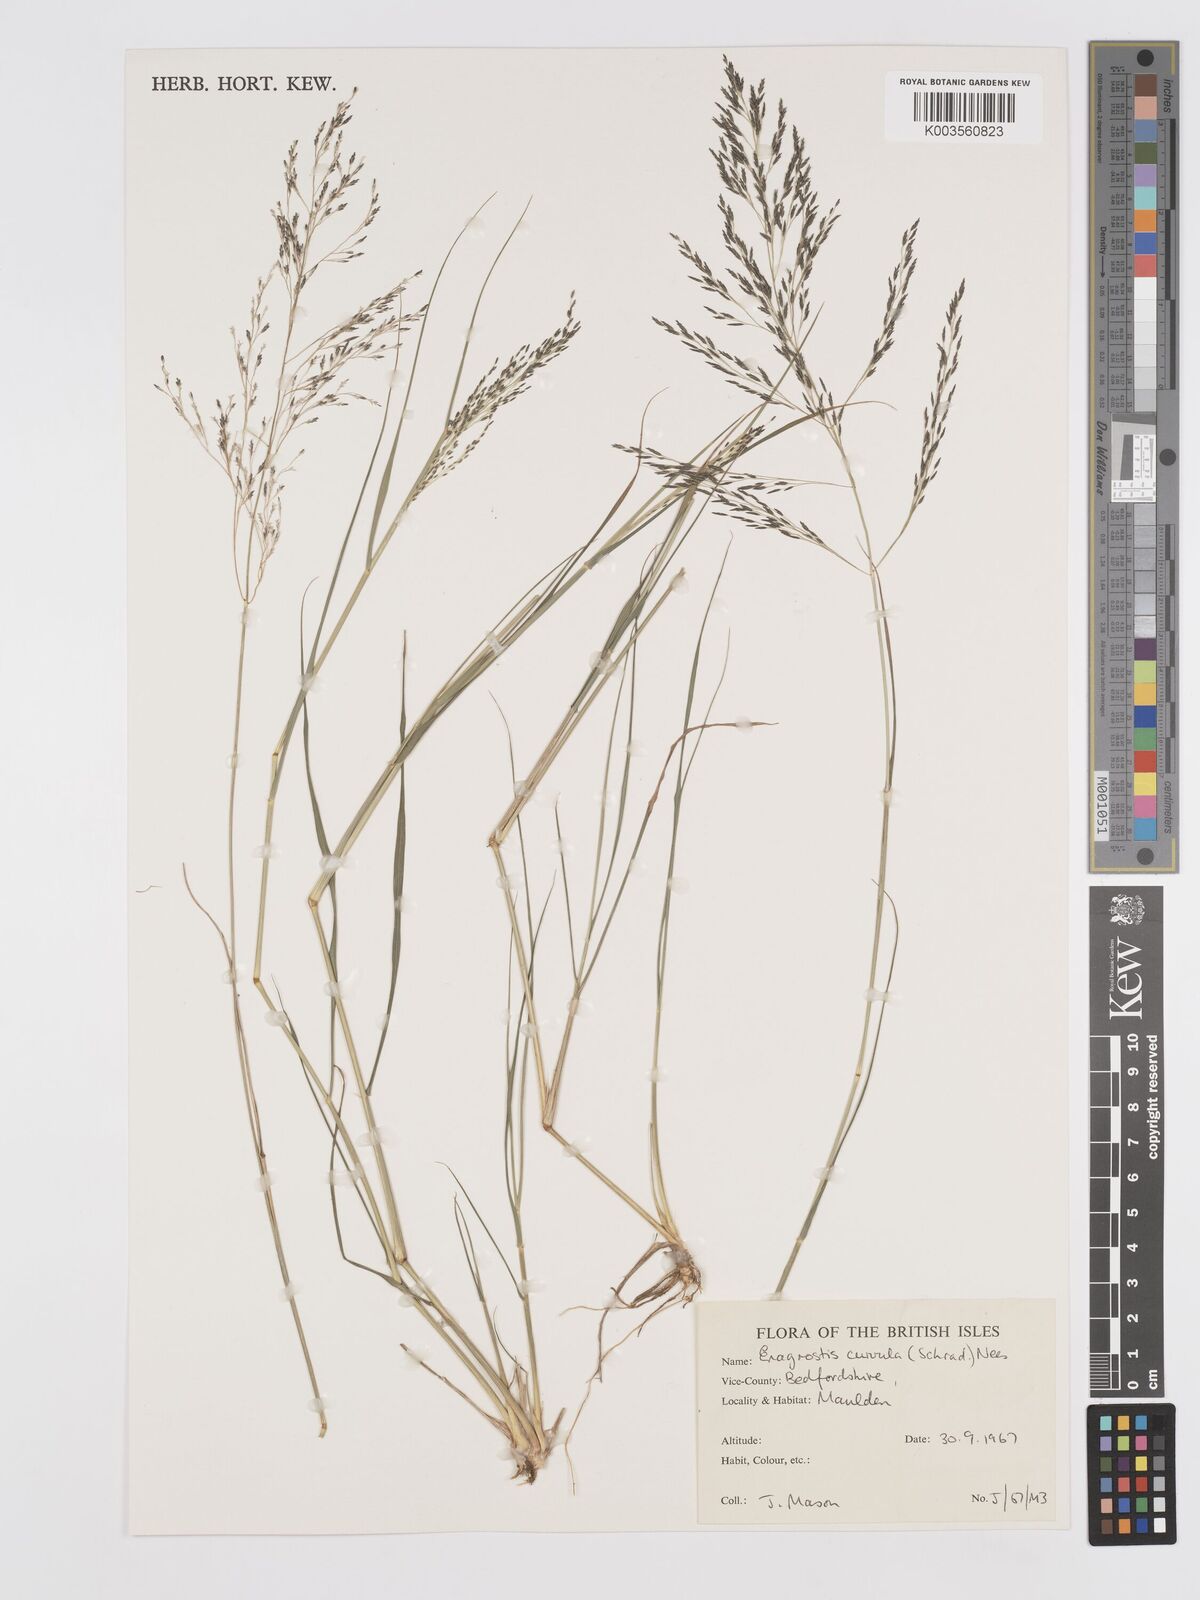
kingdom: Plantae
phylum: Tracheophyta
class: Liliopsida
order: Poales
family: Poaceae
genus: Eragrostis
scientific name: Eragrostis curvula
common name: African love-grass
